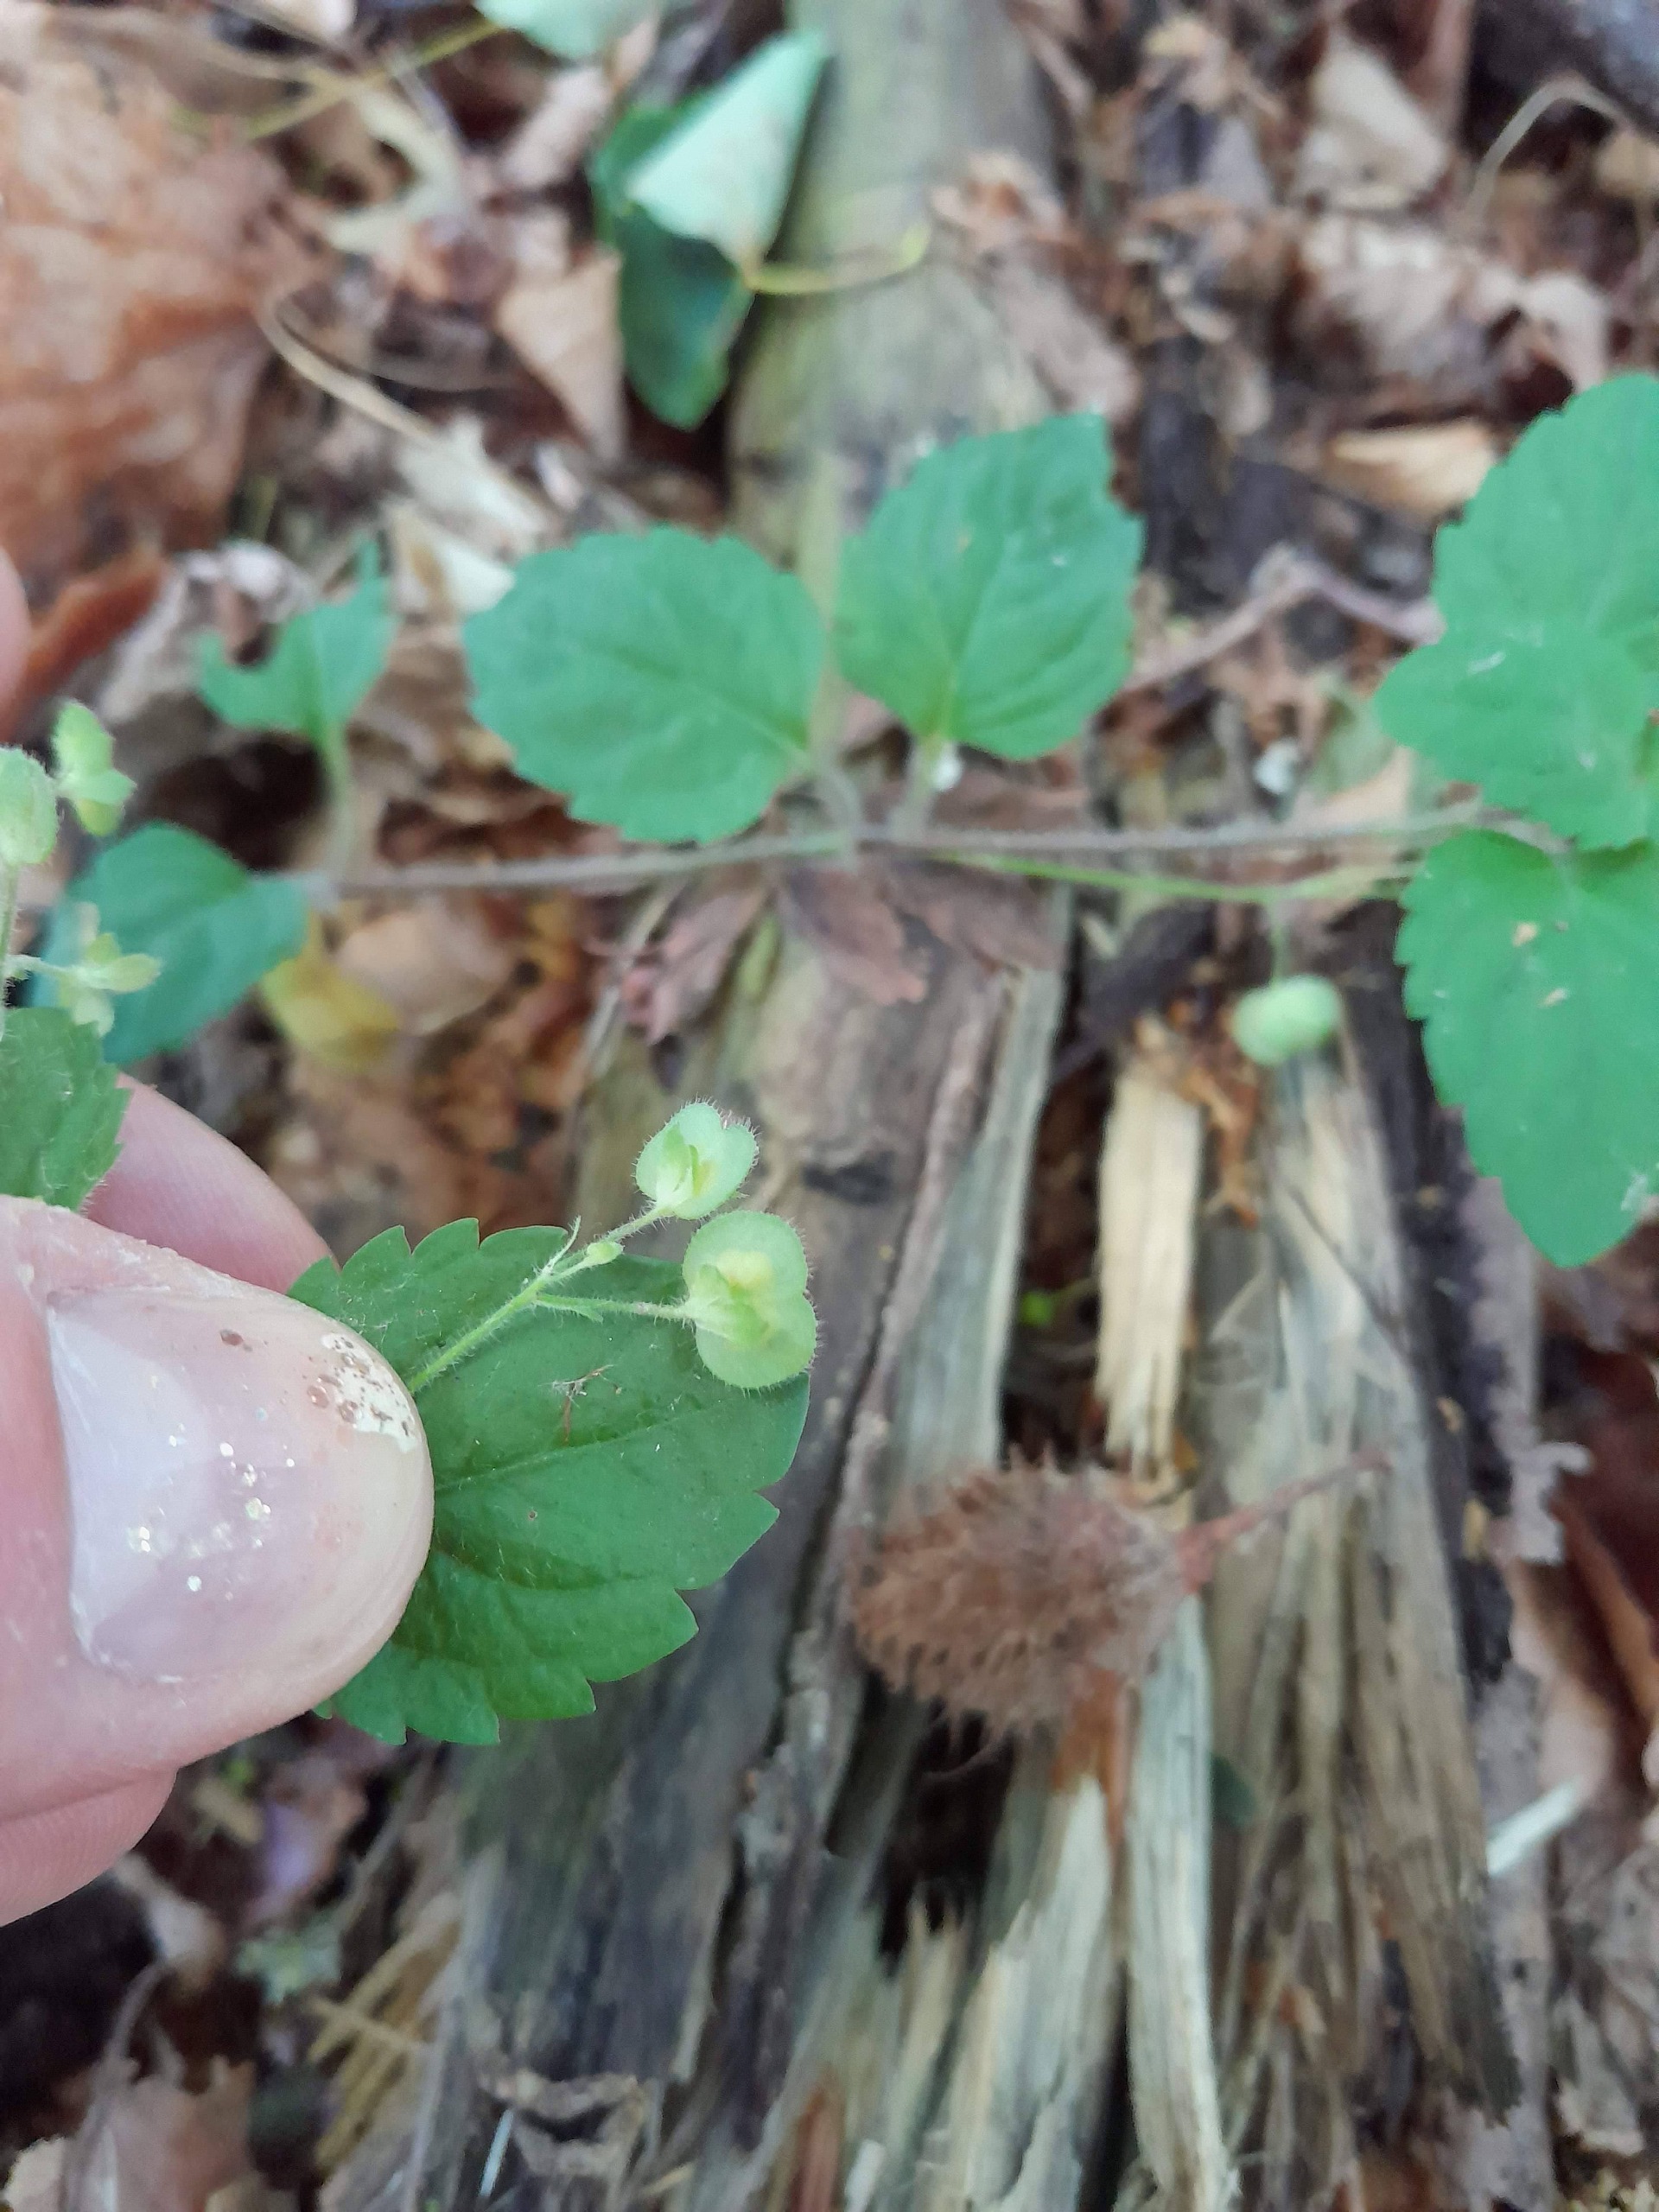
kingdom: Plantae
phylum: Tracheophyta
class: Magnoliopsida
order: Lamiales
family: Plantaginaceae
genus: Veronica
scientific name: Veronica montana
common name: Bjerg-ærenpris
